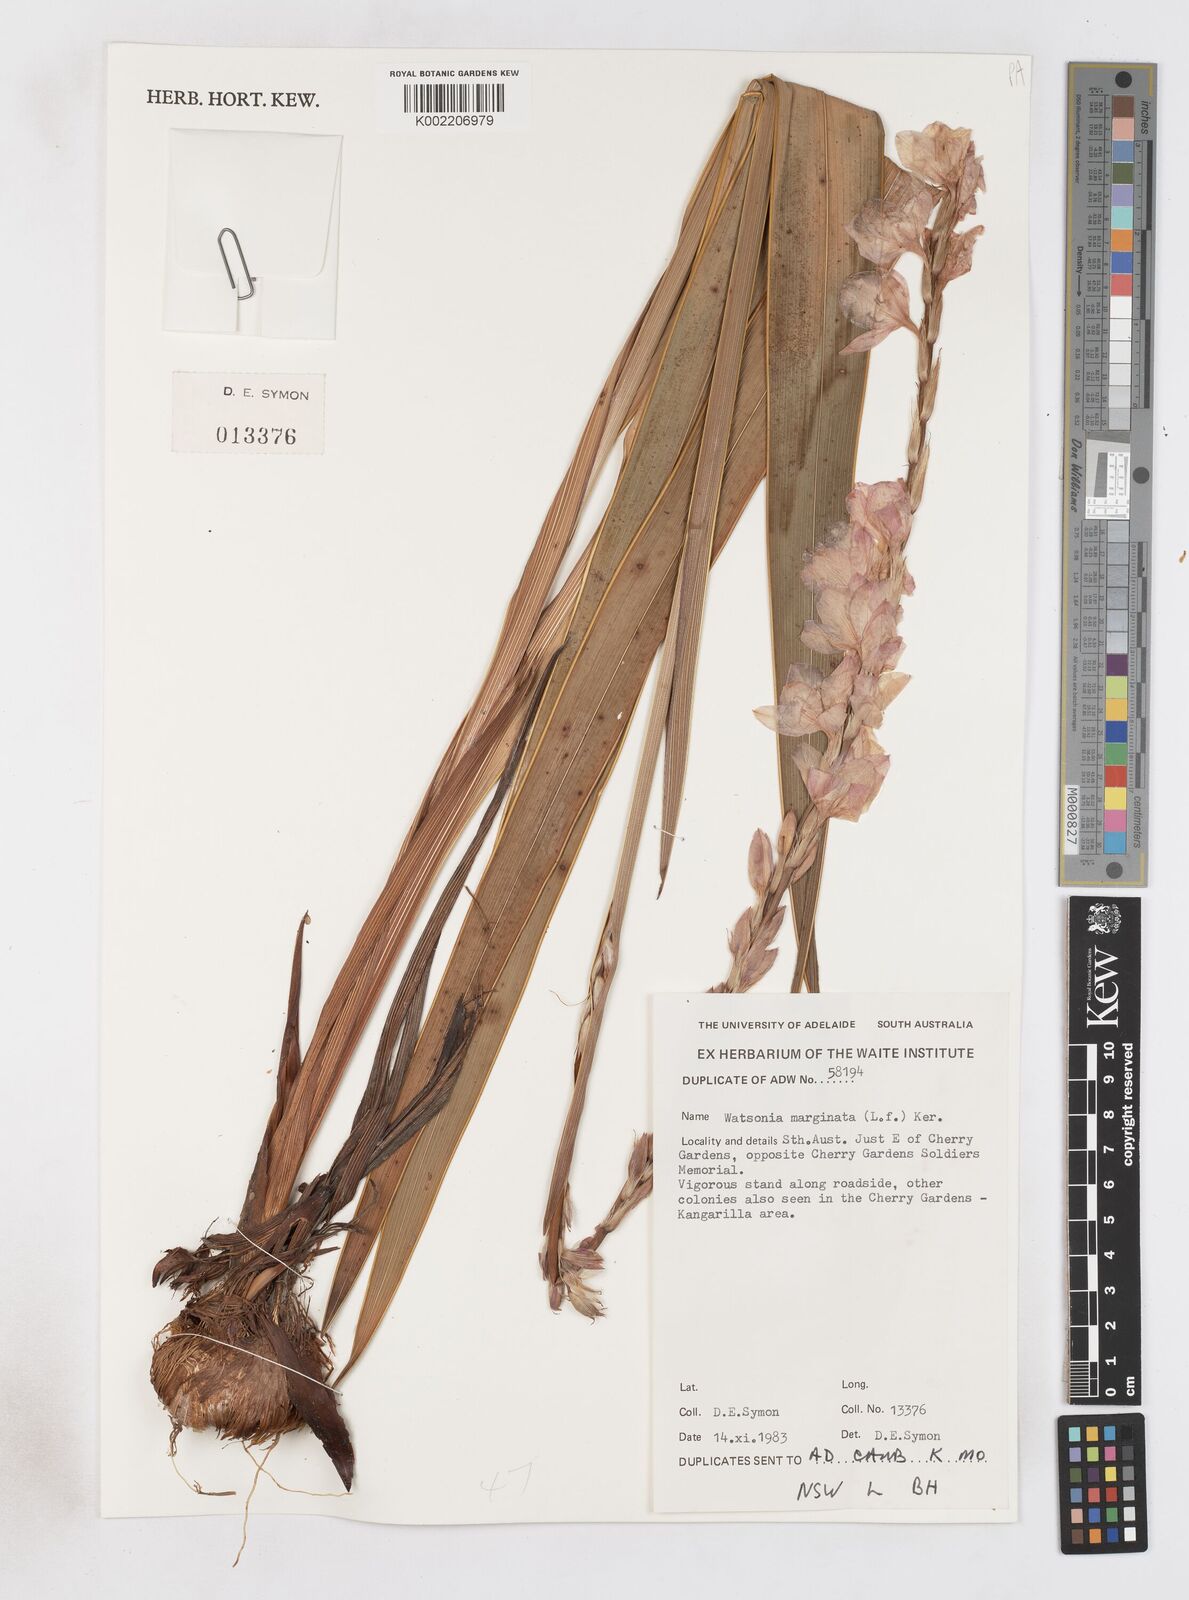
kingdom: Plantae
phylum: Tracheophyta
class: Liliopsida
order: Asparagales
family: Iridaceae
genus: Pillansia
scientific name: Pillansia
